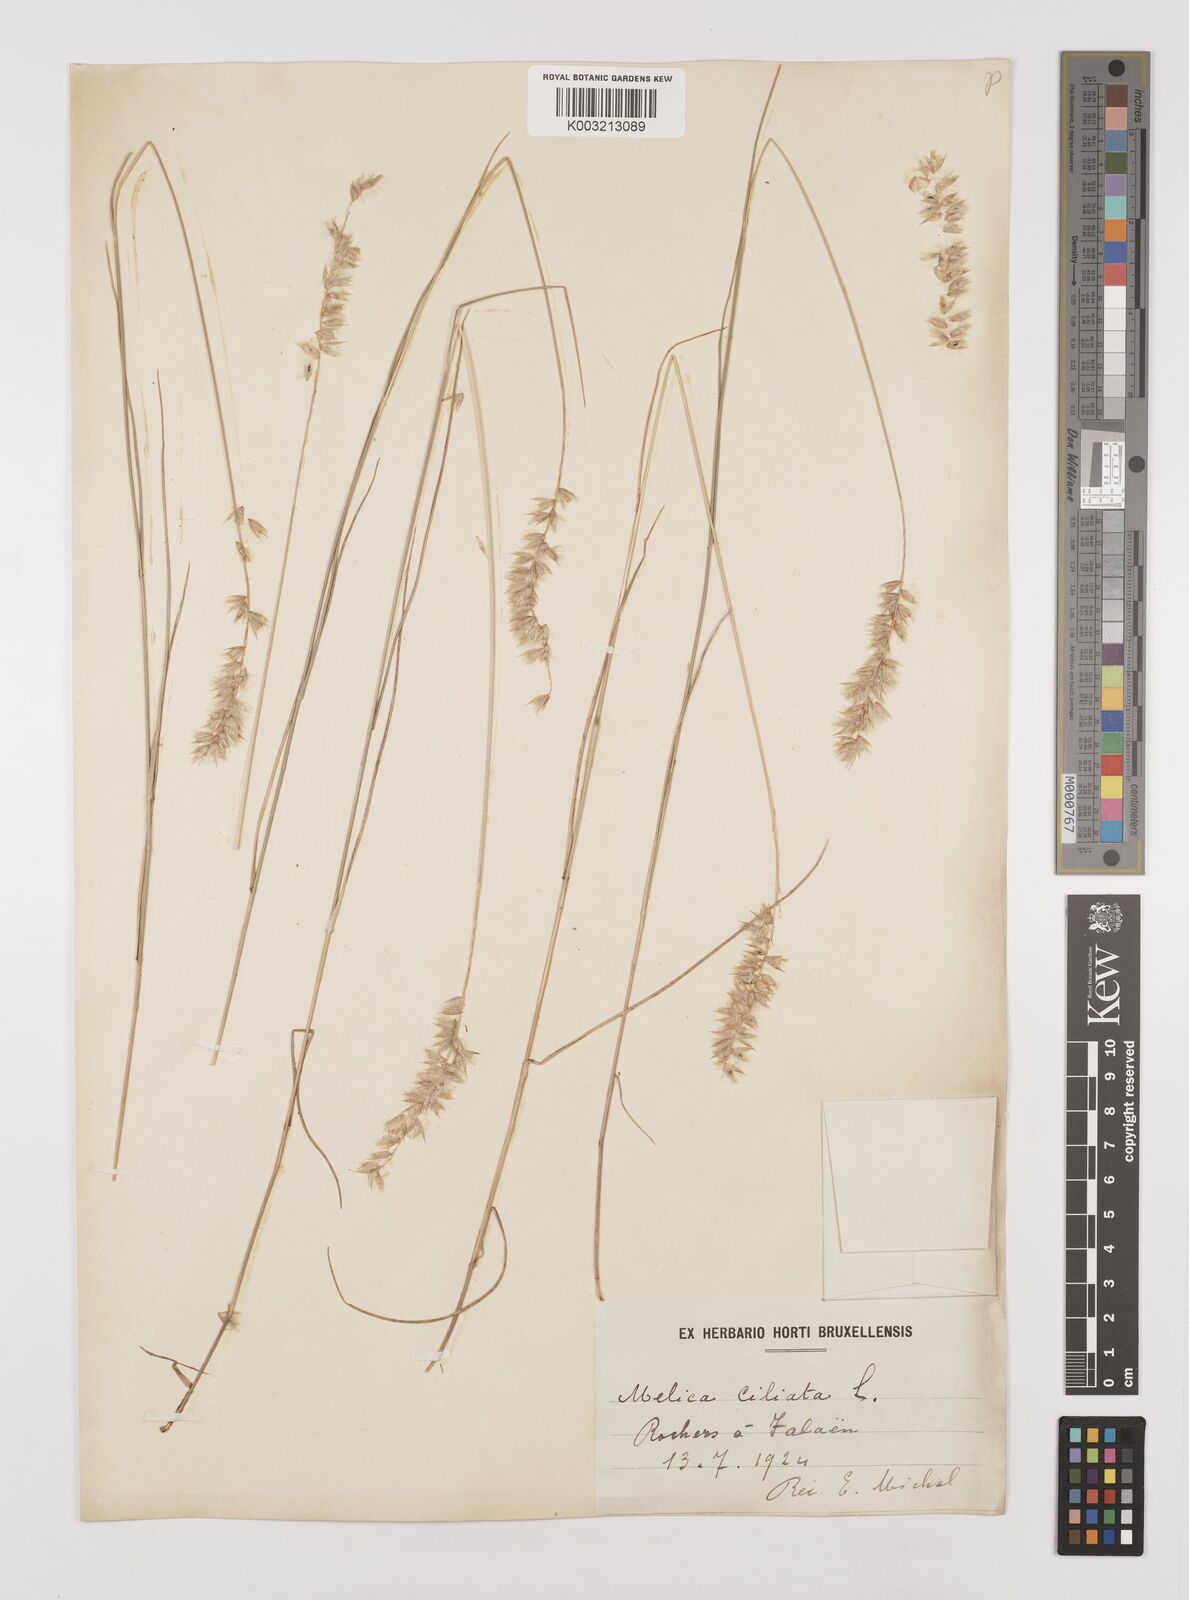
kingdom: Plantae
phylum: Tracheophyta
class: Liliopsida
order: Poales
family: Poaceae
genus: Melica
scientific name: Melica ciliata
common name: Hairy melicgrass
